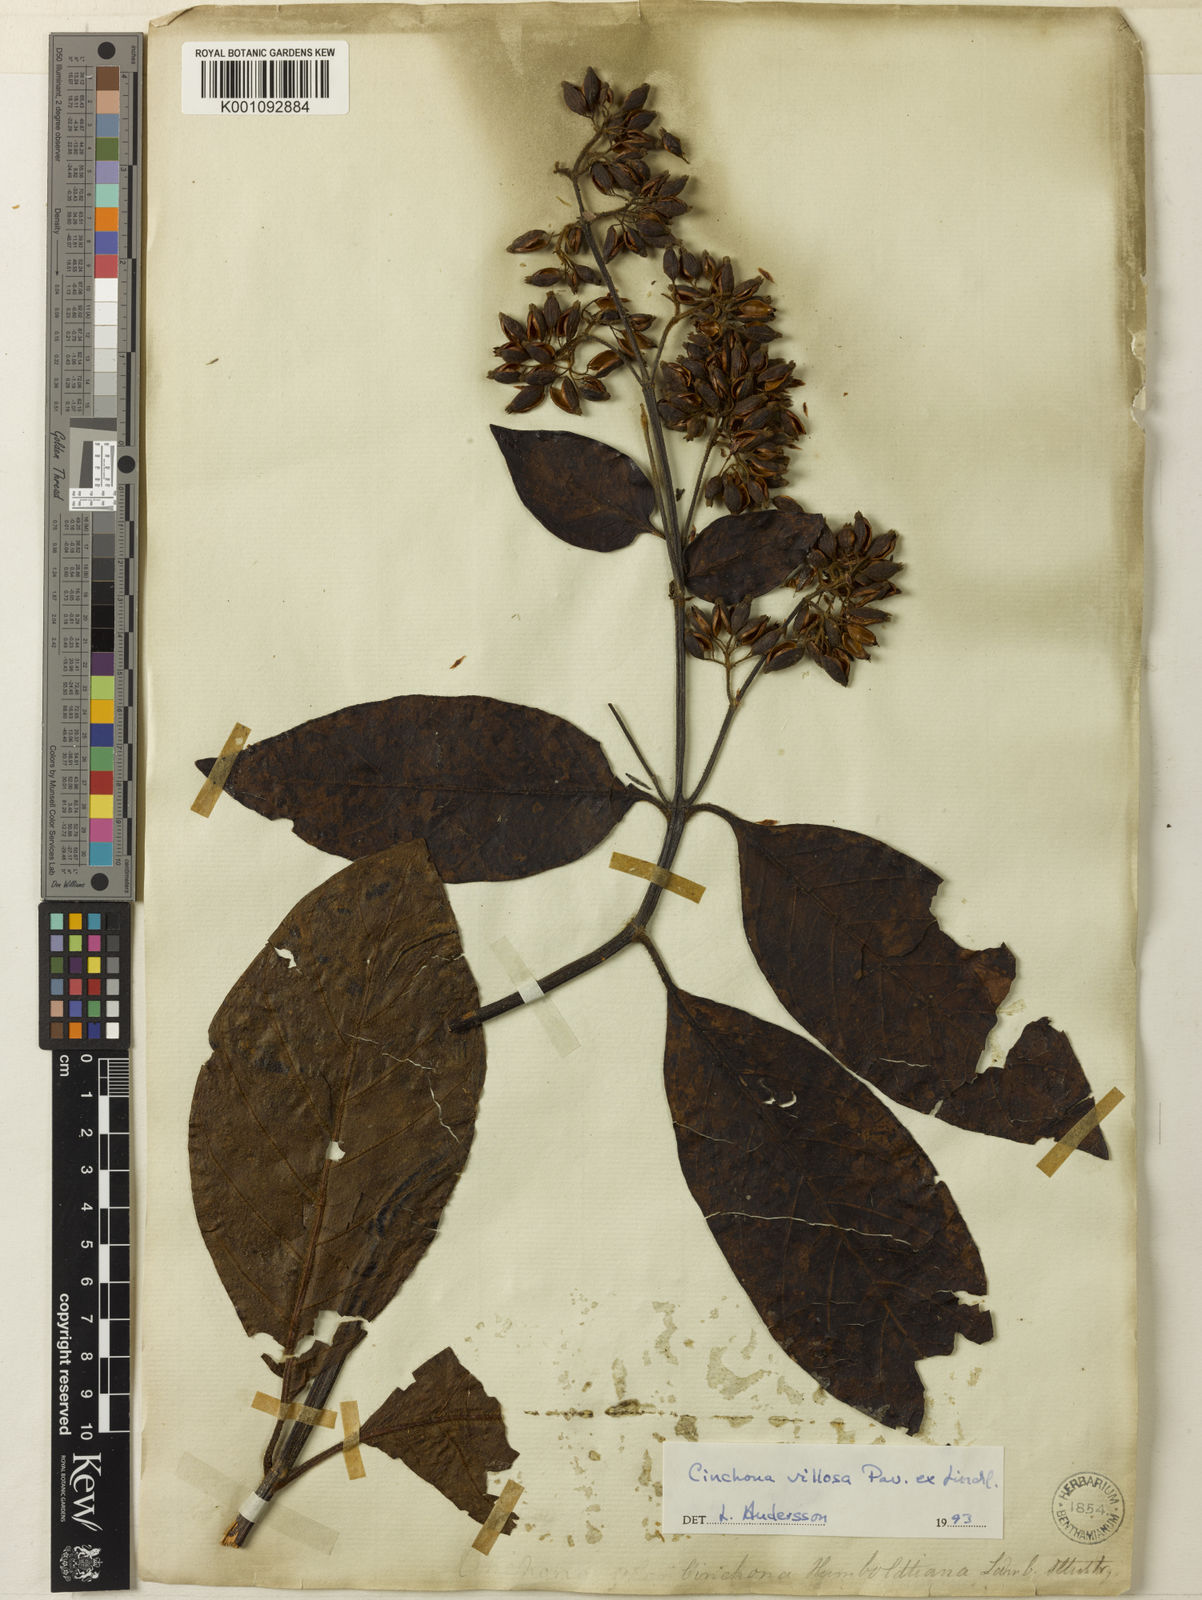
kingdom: Plantae
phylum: Tracheophyta
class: Magnoliopsida
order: Gentianales
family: Rubiaceae
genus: Cinchona
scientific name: Cinchona villosa
